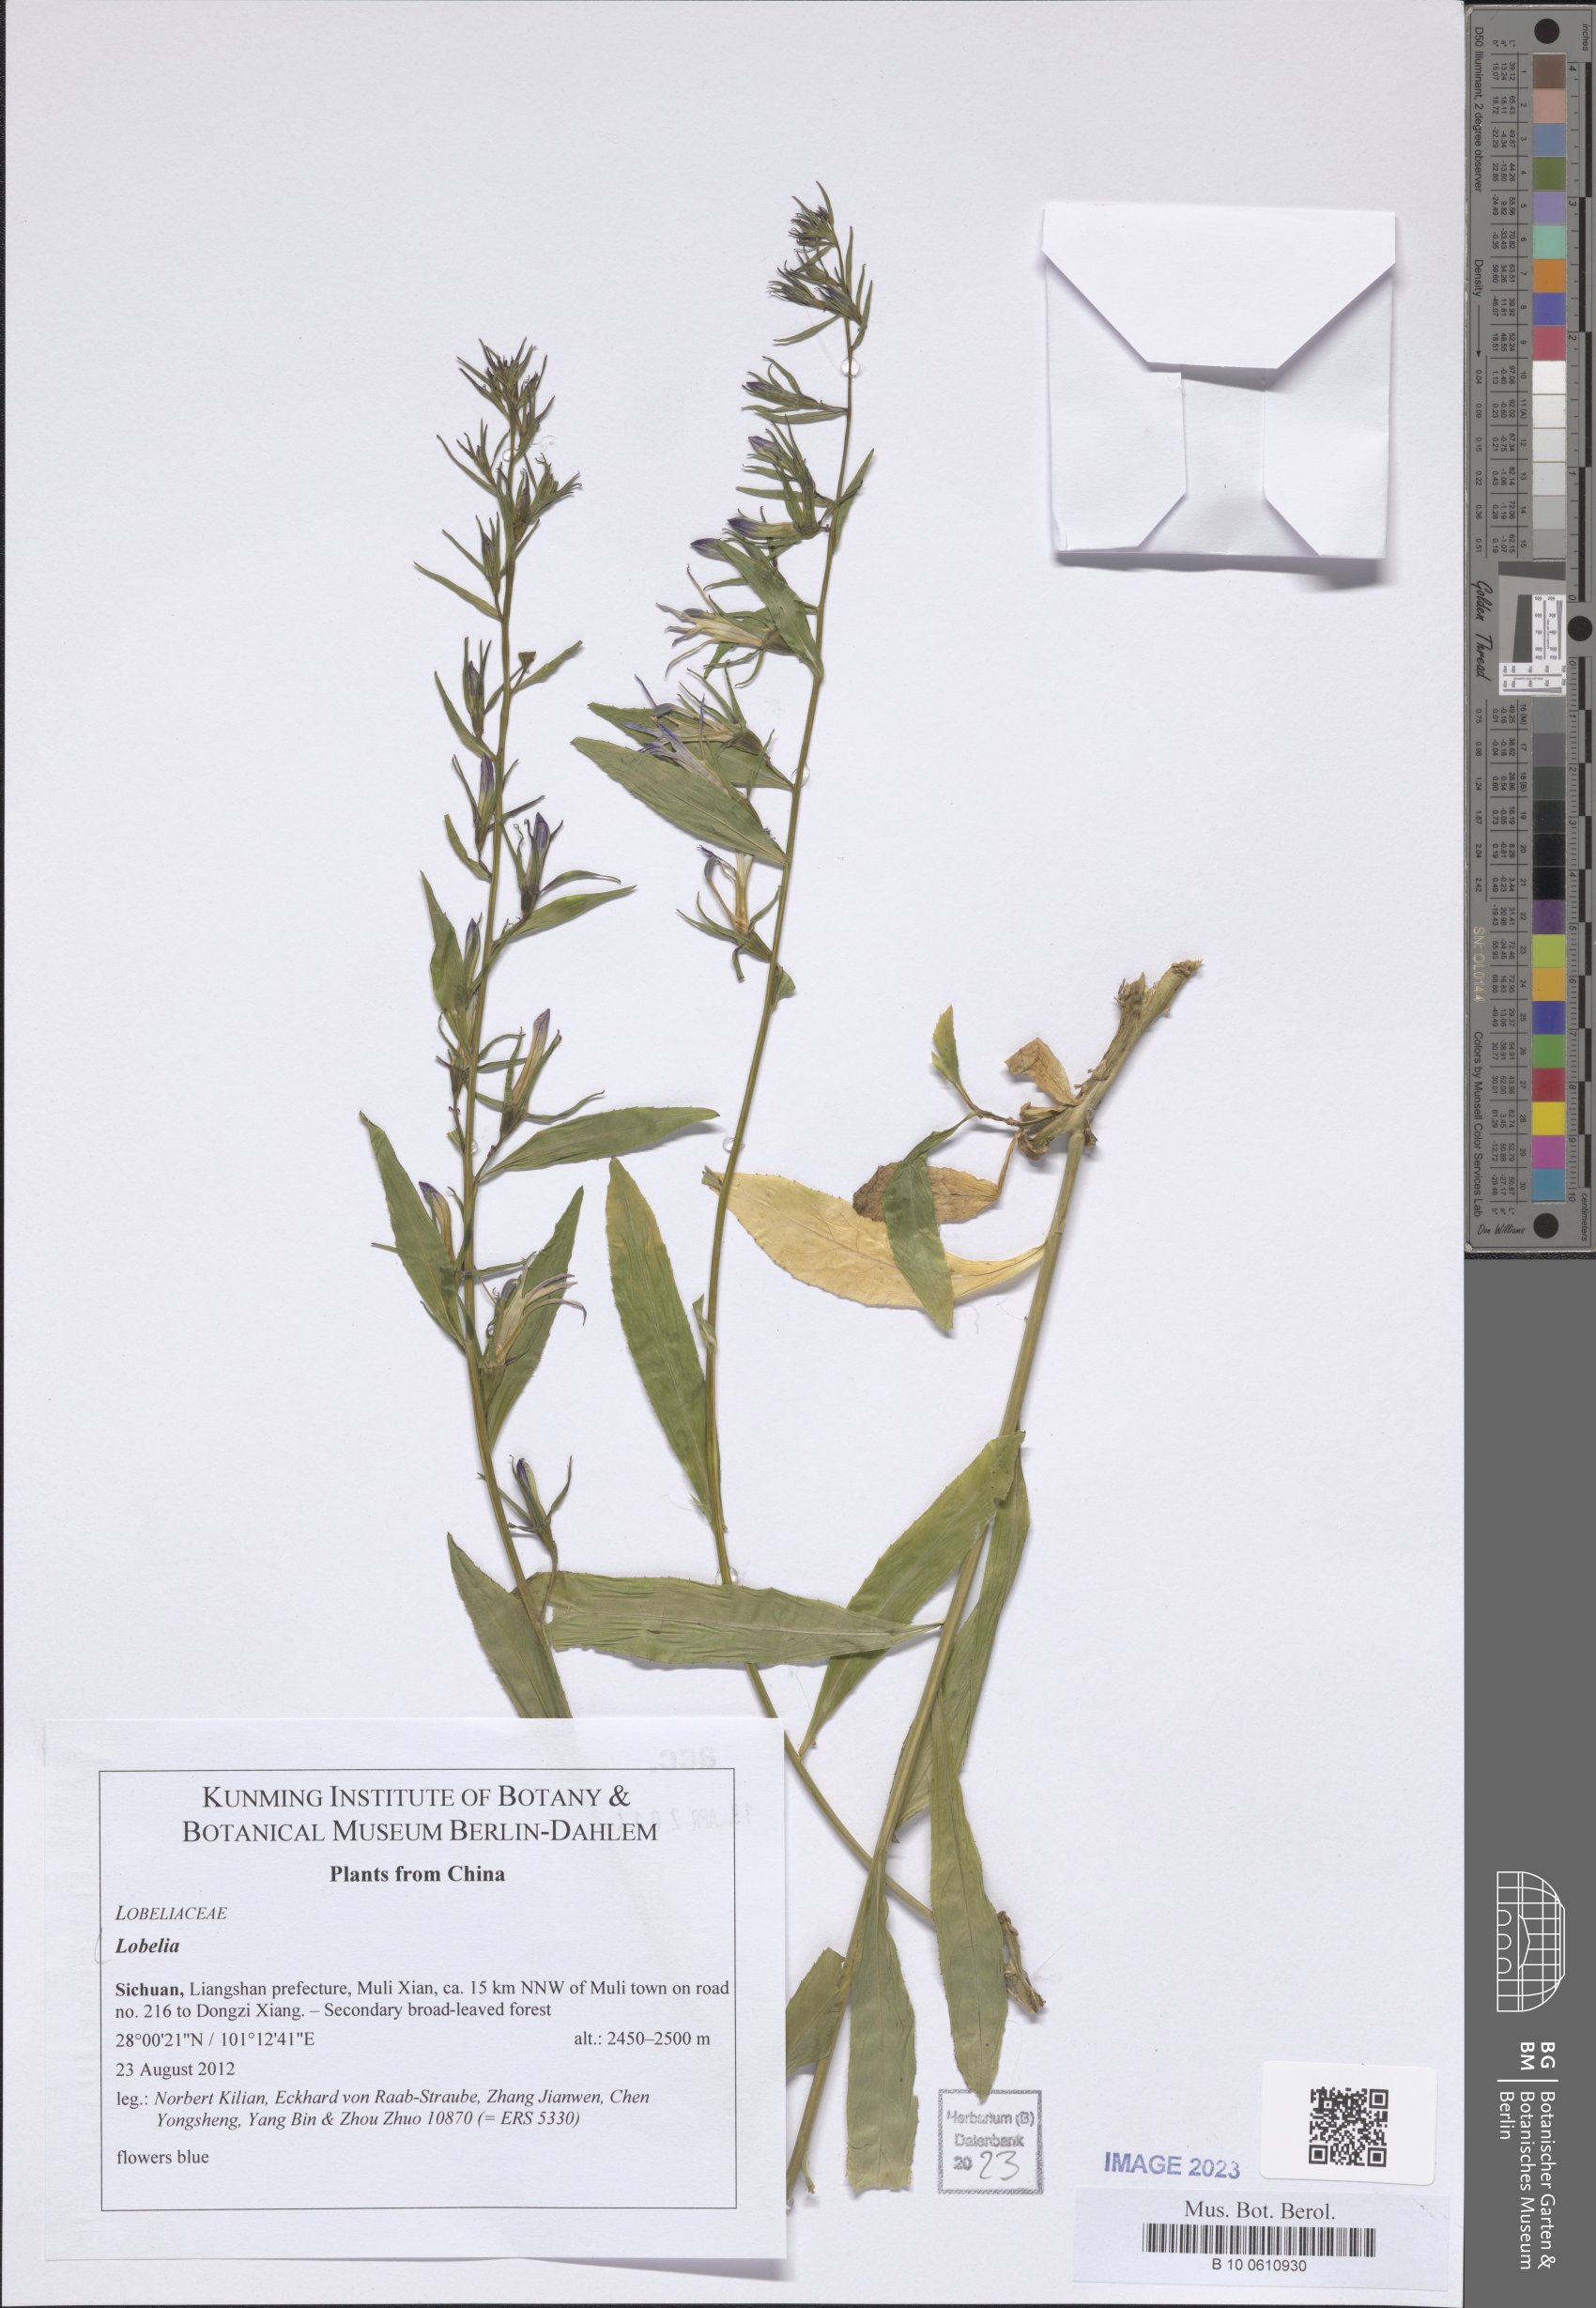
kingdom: Plantae
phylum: Tracheophyta
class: Magnoliopsida
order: Asterales
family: Campanulaceae
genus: Lobelia
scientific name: Lobelia
